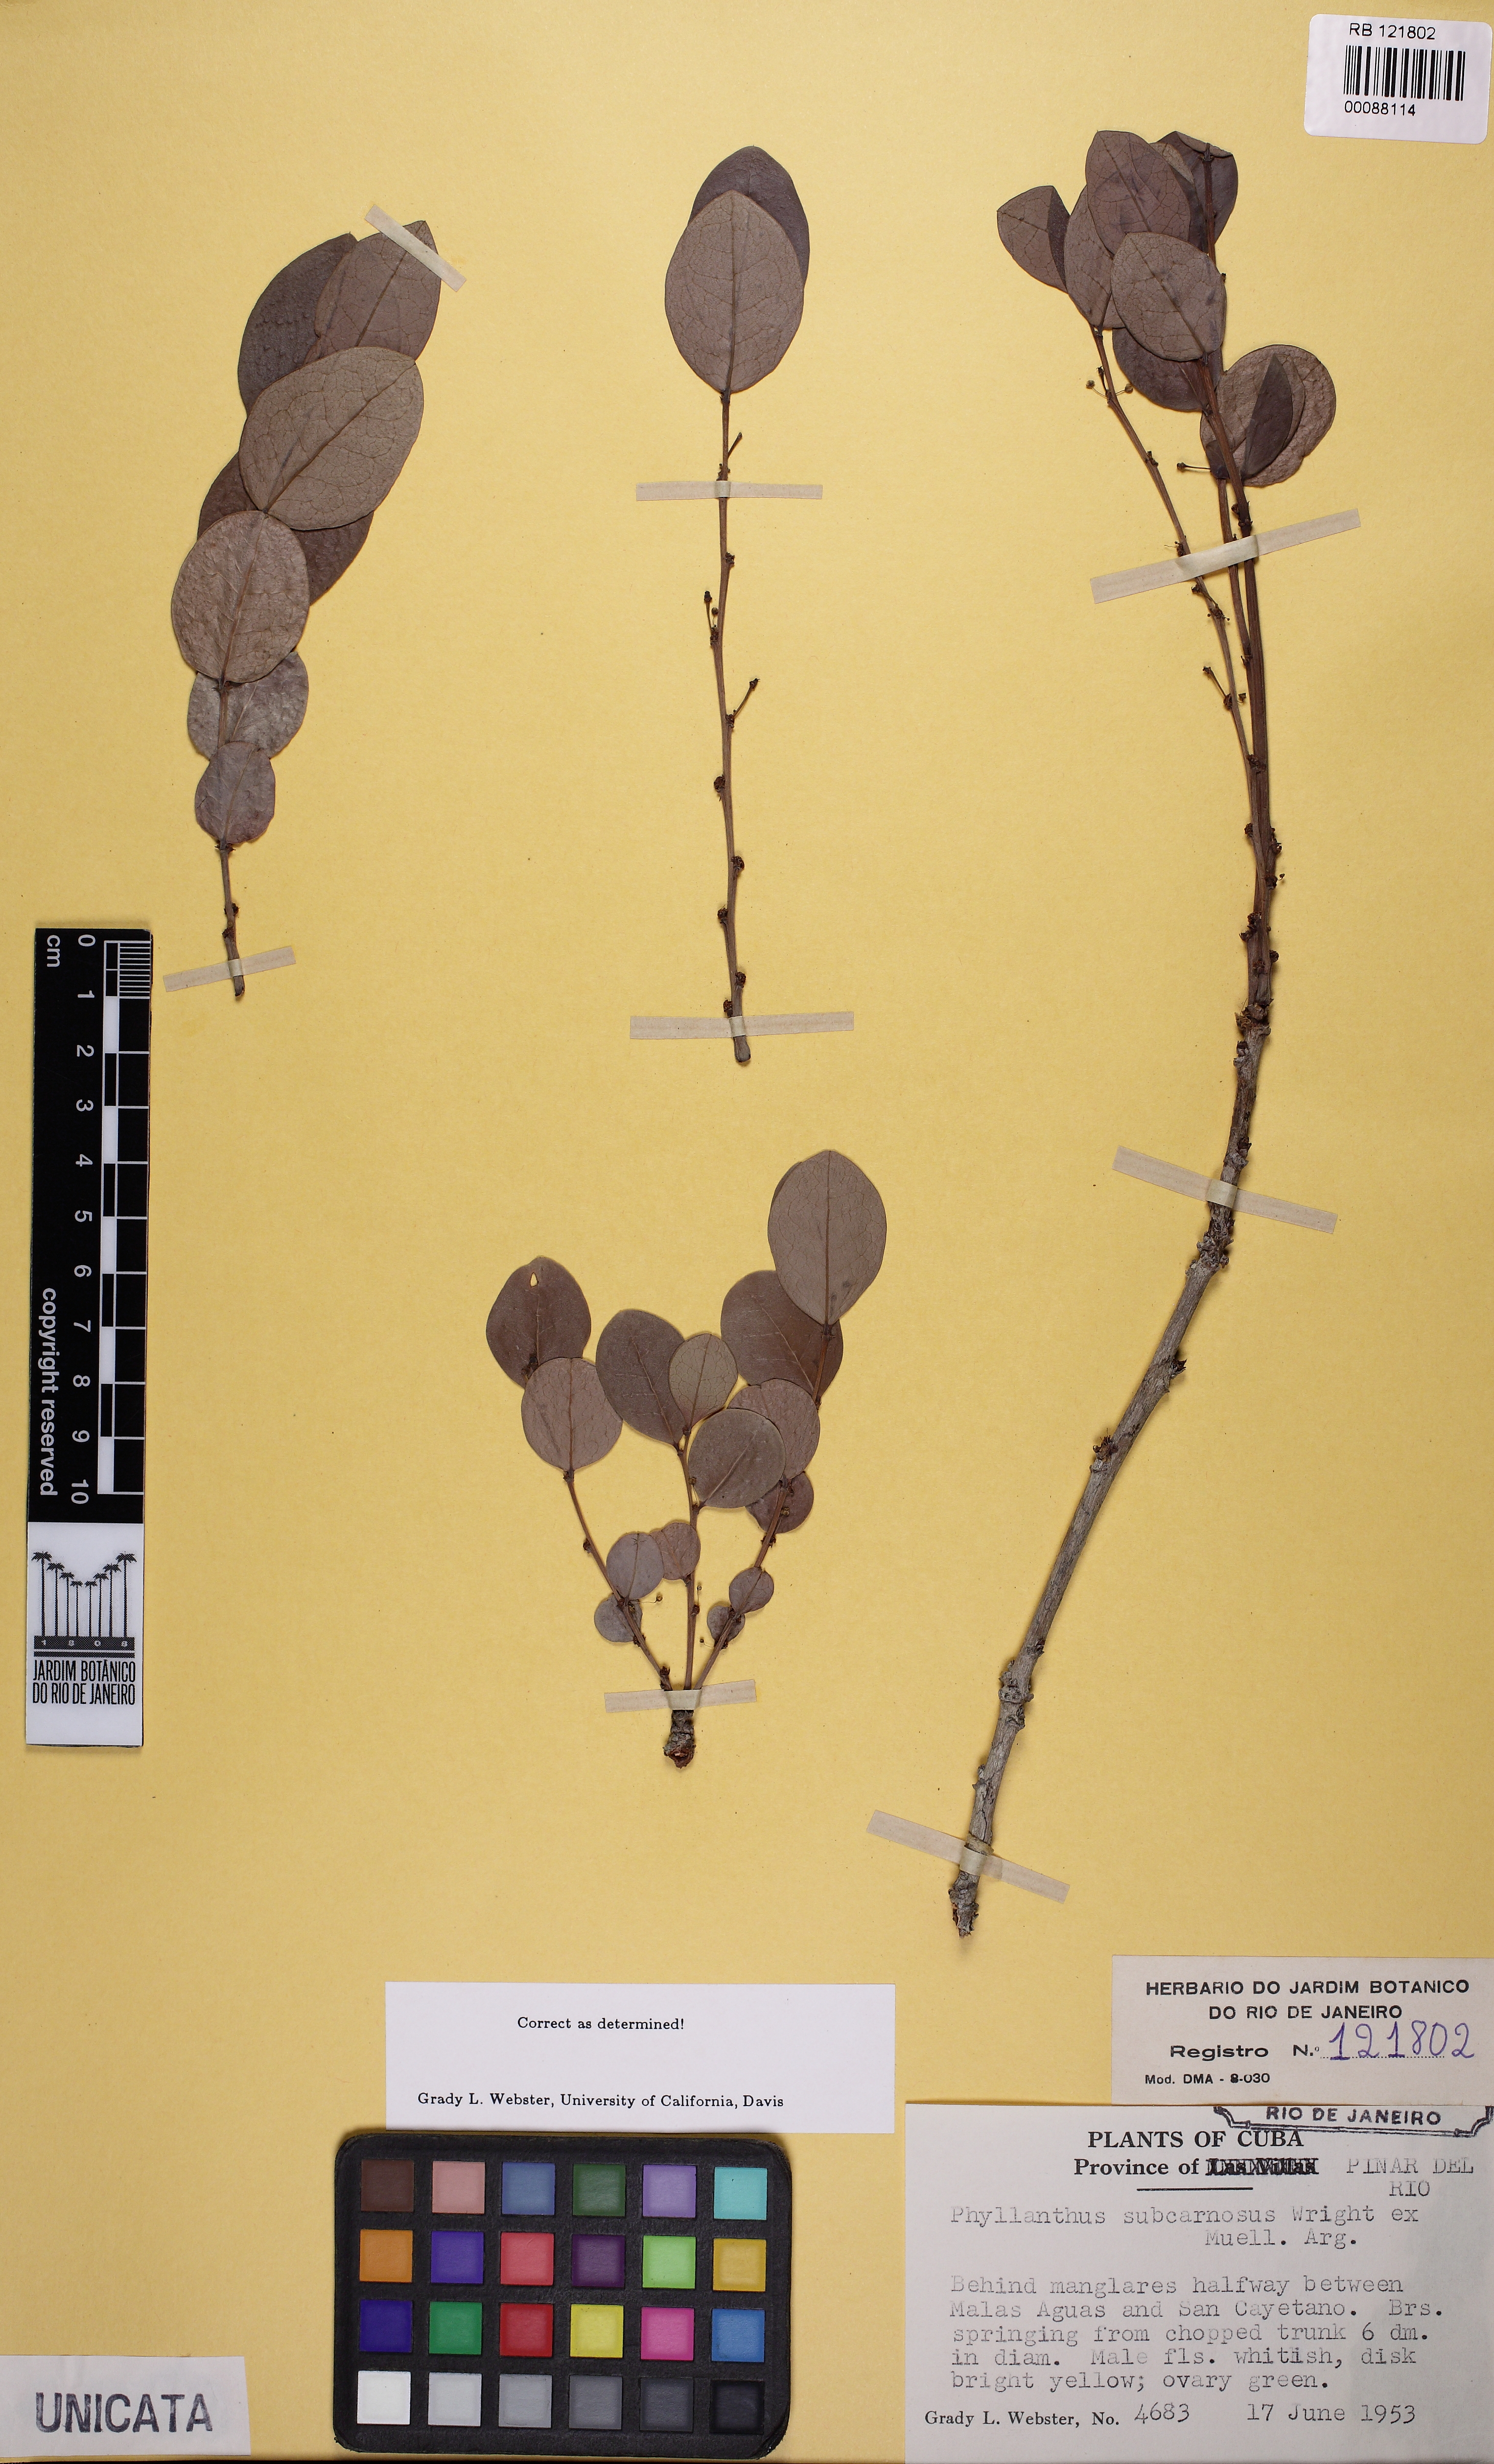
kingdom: Plantae
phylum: Tracheophyta
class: Magnoliopsida
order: Malpighiales
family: Phyllanthaceae
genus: Phyllanthus
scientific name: Phyllanthus subcarnosus
